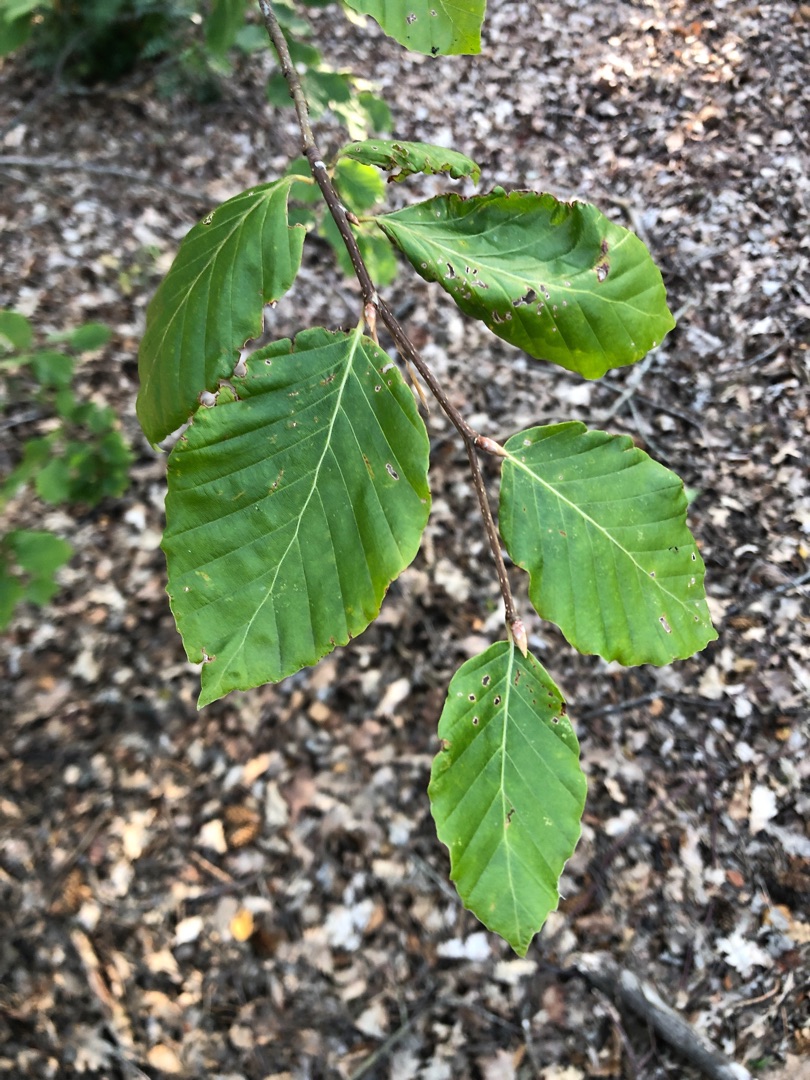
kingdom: Plantae
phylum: Tracheophyta
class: Magnoliopsida
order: Fagales
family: Fagaceae
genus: Fagus
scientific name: Fagus sylvatica
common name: Bøg
